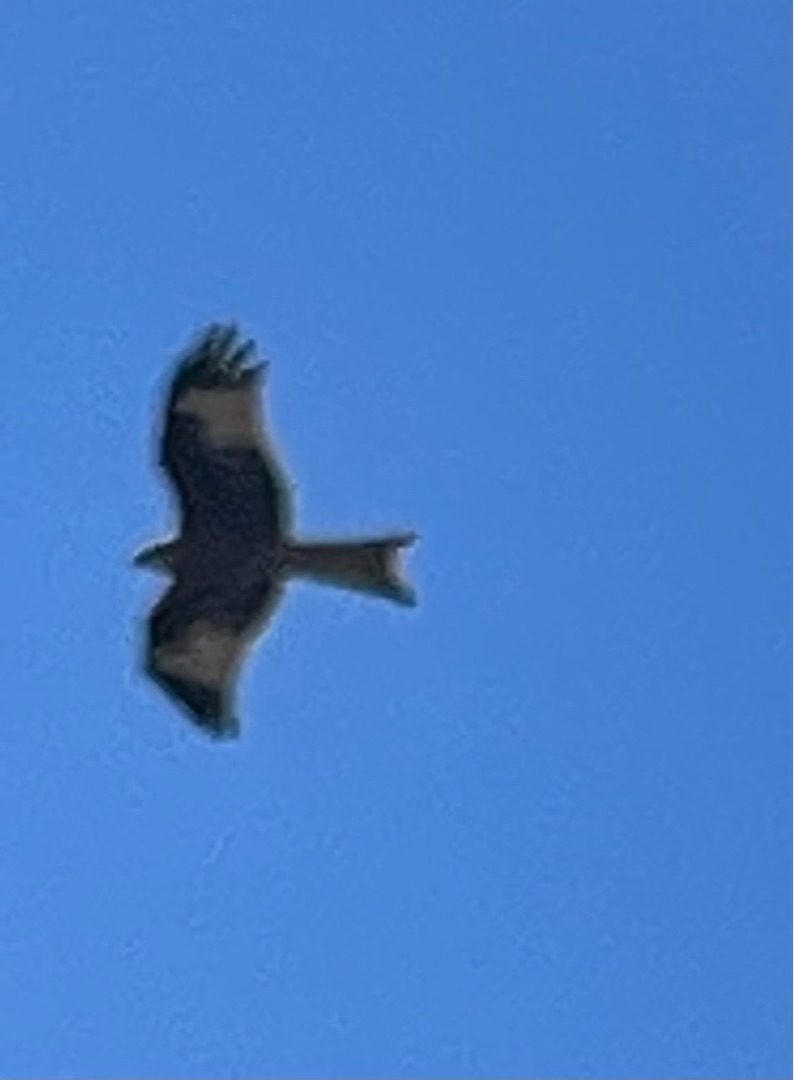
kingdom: Animalia
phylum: Chordata
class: Aves
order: Accipitriformes
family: Accipitridae
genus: Milvus
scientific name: Milvus milvus
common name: Rød glente
